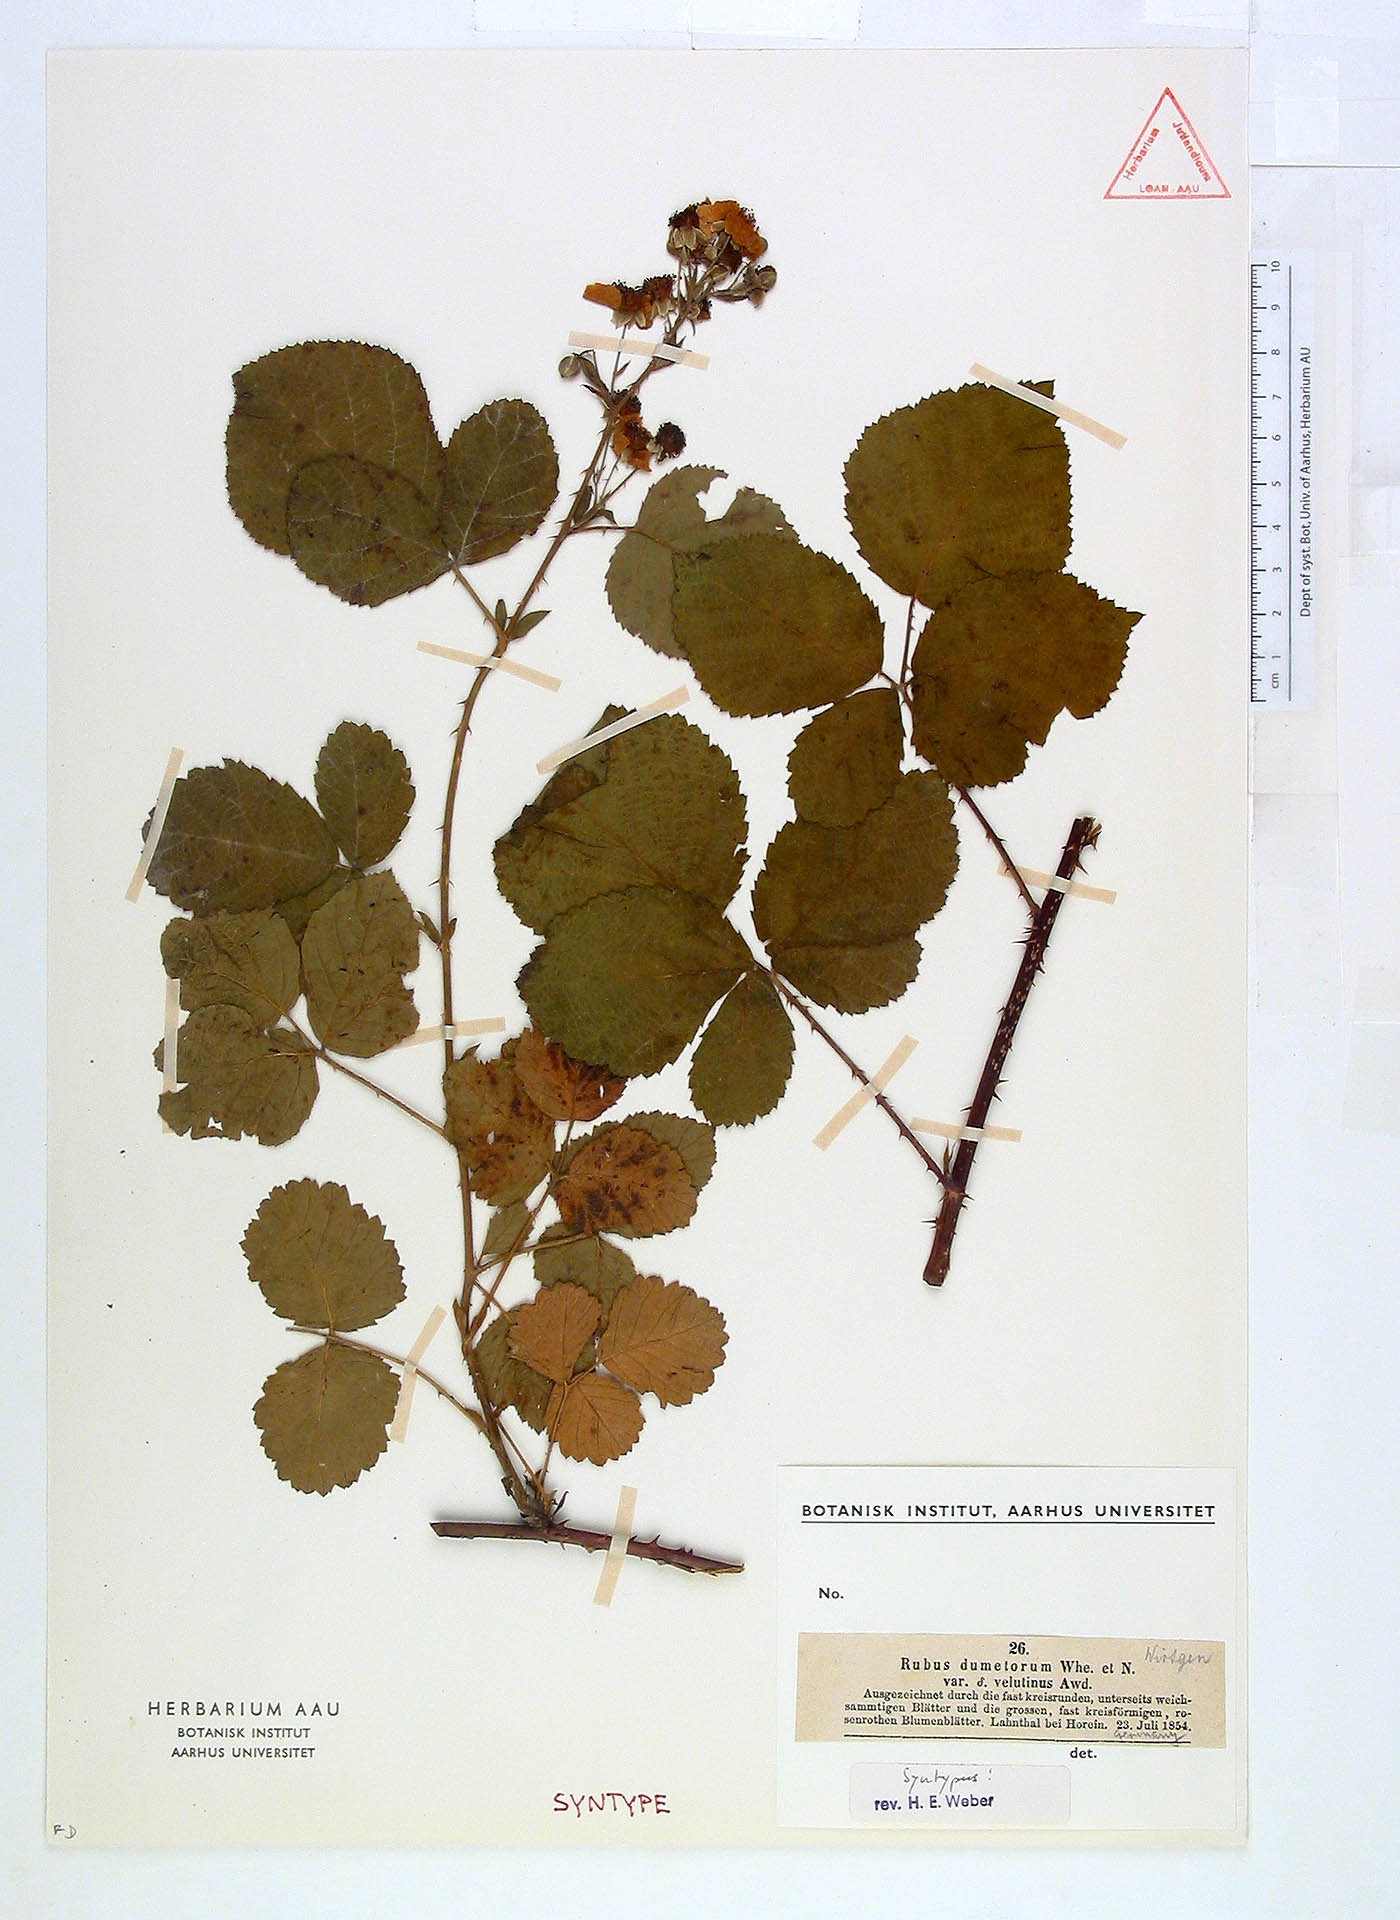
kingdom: Plantae
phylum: Tracheophyta
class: Magnoliopsida
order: Rosales
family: Rosaceae
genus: Rubus
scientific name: Rubus nemorosus
